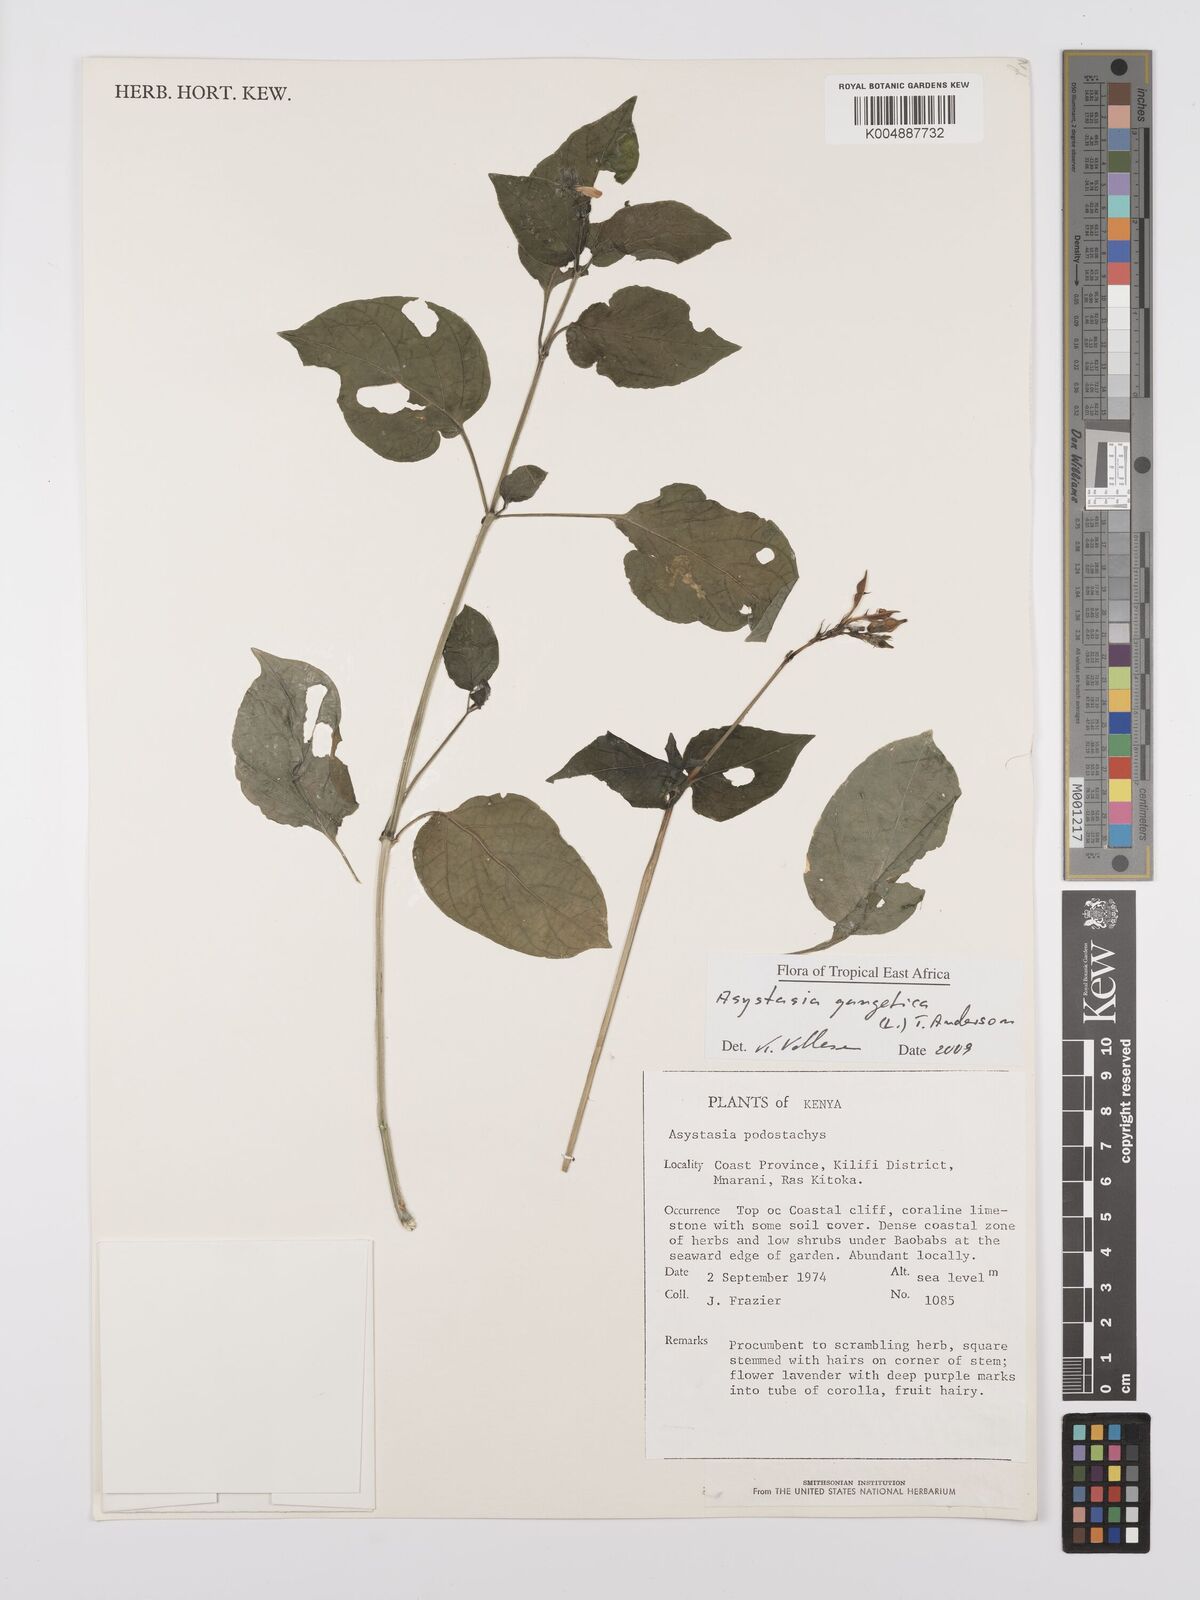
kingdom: Plantae
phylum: Tracheophyta
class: Magnoliopsida
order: Lamiales
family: Acanthaceae
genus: Asystasia
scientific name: Asystasia gangetica
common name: Chinese violet
